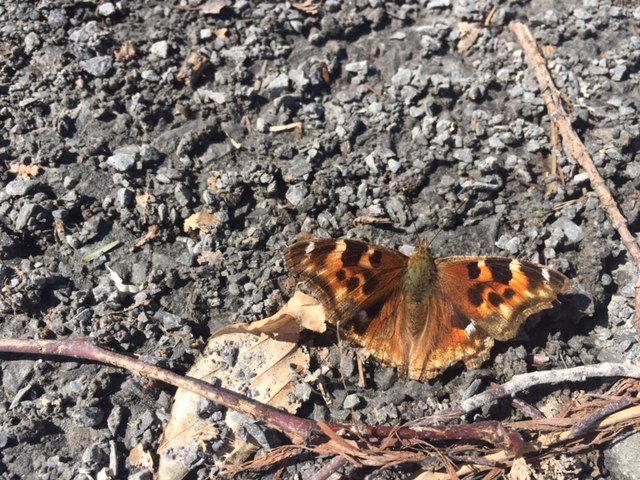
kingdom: Animalia
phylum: Arthropoda
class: Insecta
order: Lepidoptera
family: Nymphalidae
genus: Polygonia
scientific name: Polygonia vaualbum
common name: Compton Tortoiseshell
